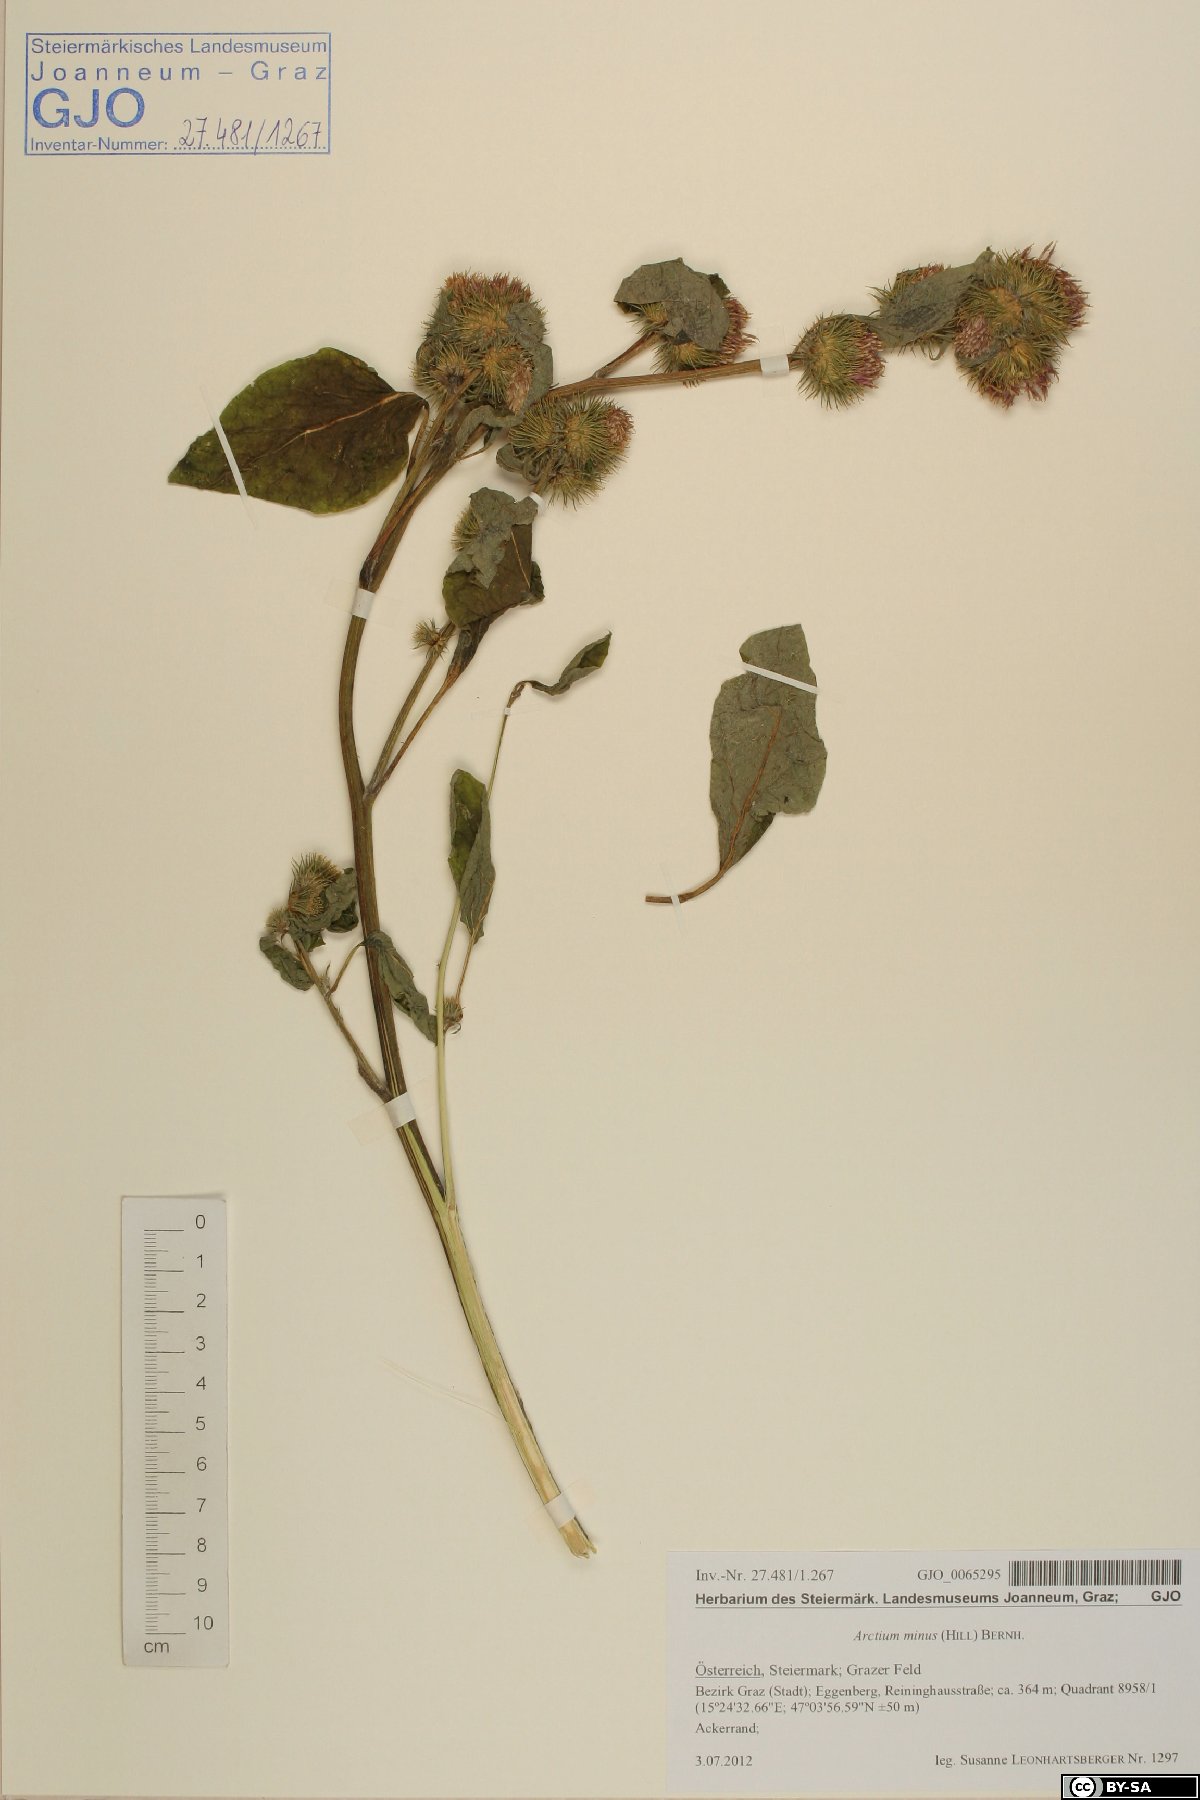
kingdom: Plantae
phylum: Tracheophyta
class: Magnoliopsida
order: Asterales
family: Asteraceae
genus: Arctium
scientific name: Arctium minus
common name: Lesser burdock
